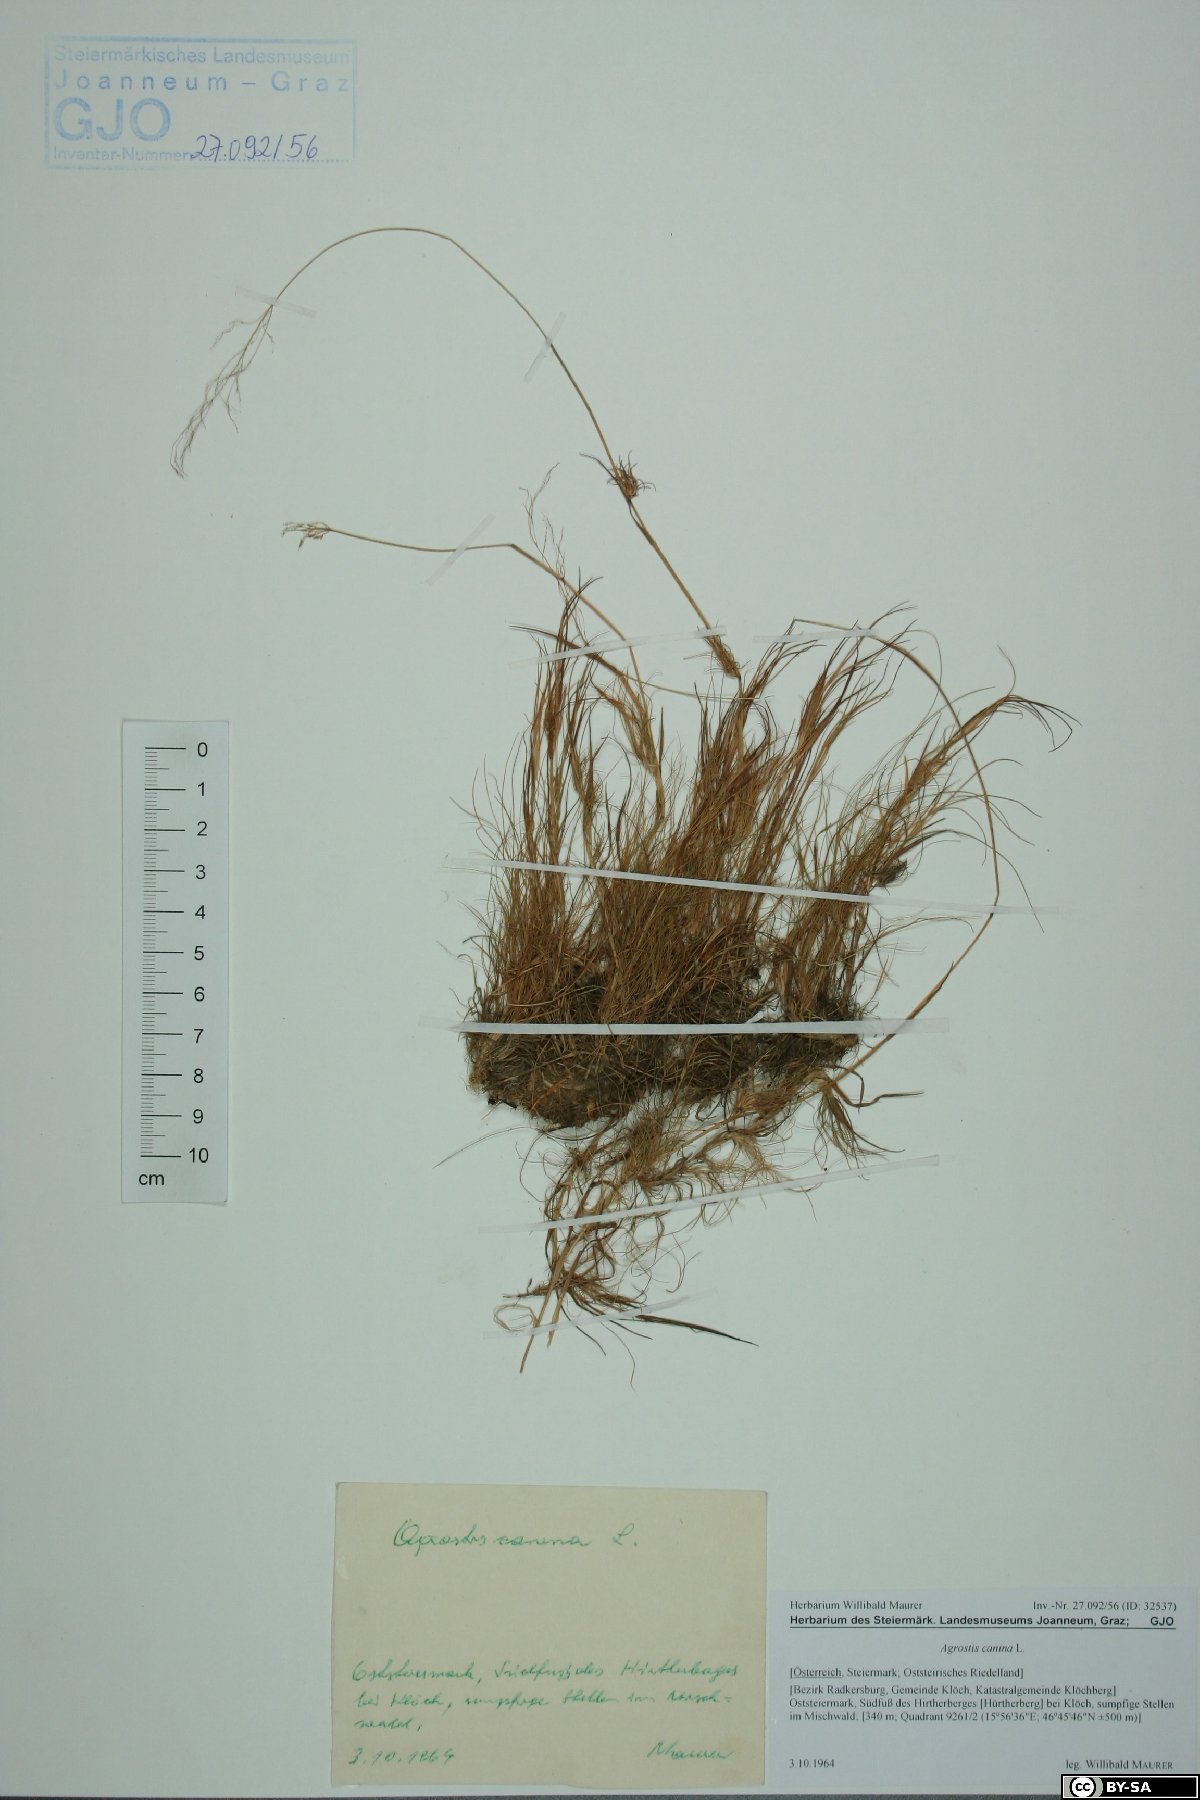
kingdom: Plantae
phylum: Tracheophyta
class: Liliopsida
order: Poales
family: Poaceae
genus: Agrostis
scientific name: Agrostis canina
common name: Velvet bent
